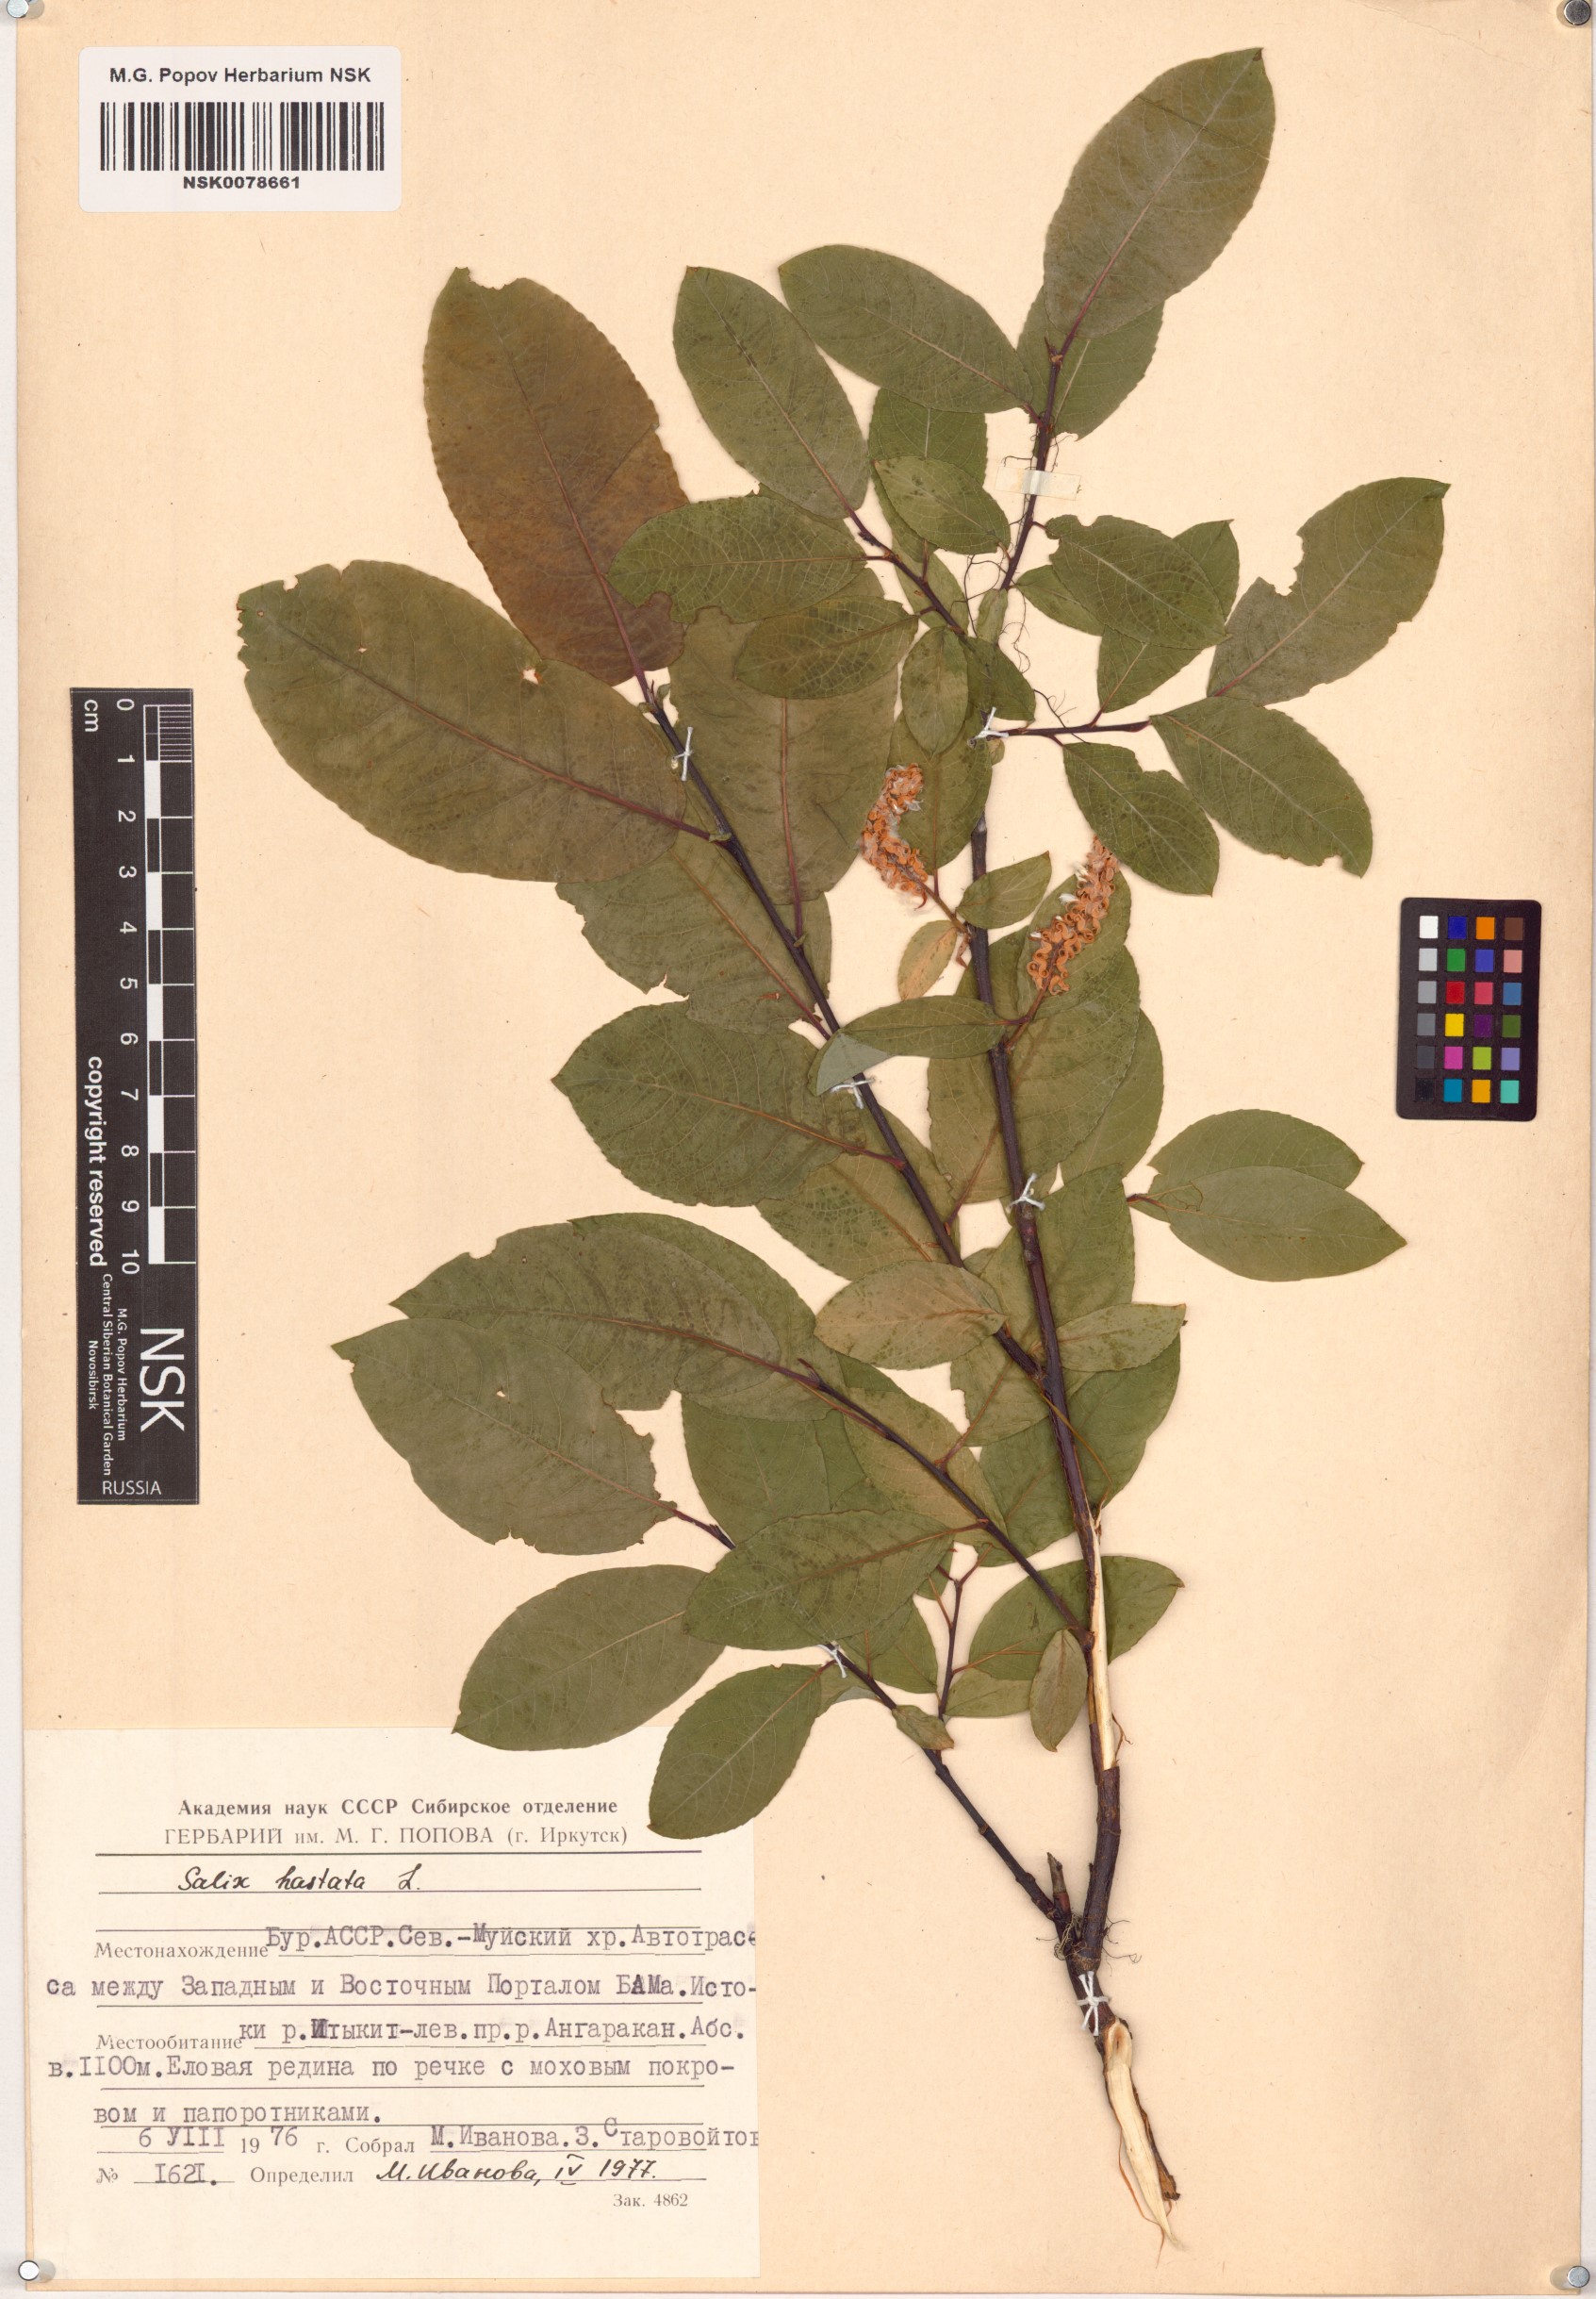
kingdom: Plantae
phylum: Tracheophyta
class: Magnoliopsida
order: Malpighiales
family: Salicaceae
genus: Salix
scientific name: Salix hastata
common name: Halberd willow
